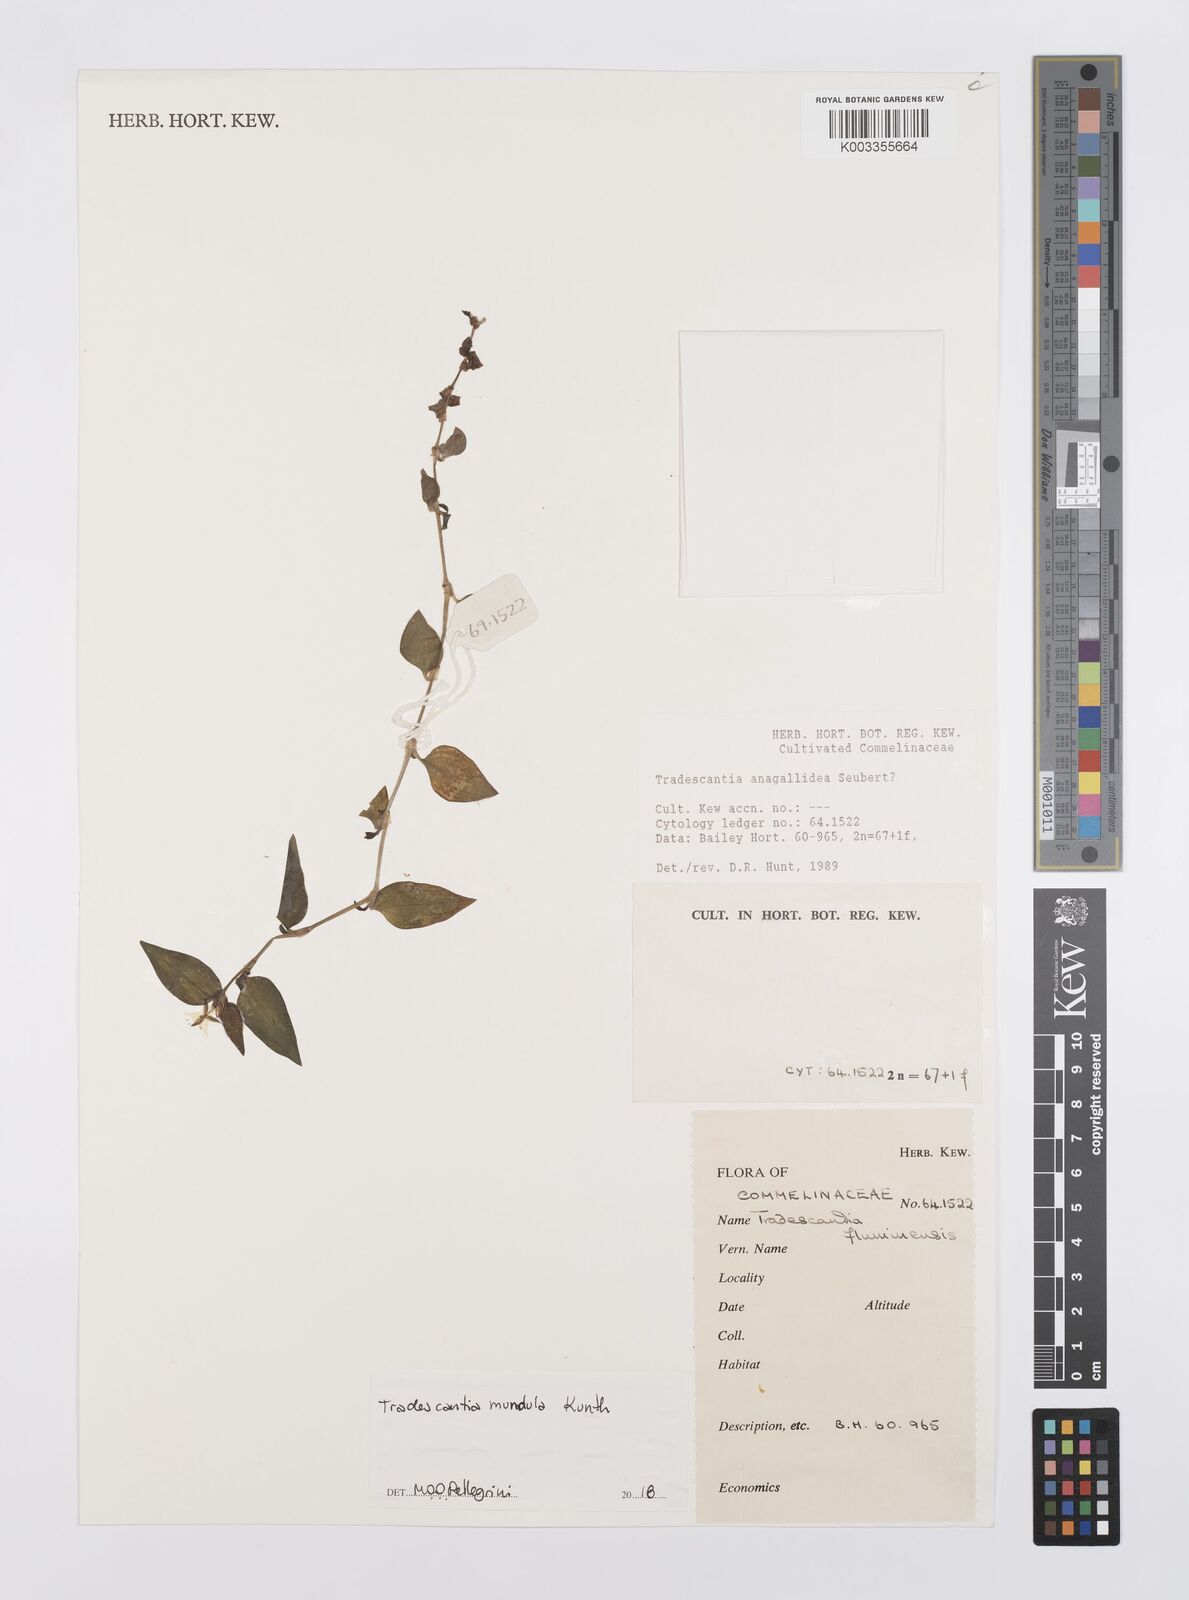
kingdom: Plantae
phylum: Tracheophyta
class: Liliopsida
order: Commelinales
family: Commelinaceae
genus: Tradescantia
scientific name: Tradescantia mundula
